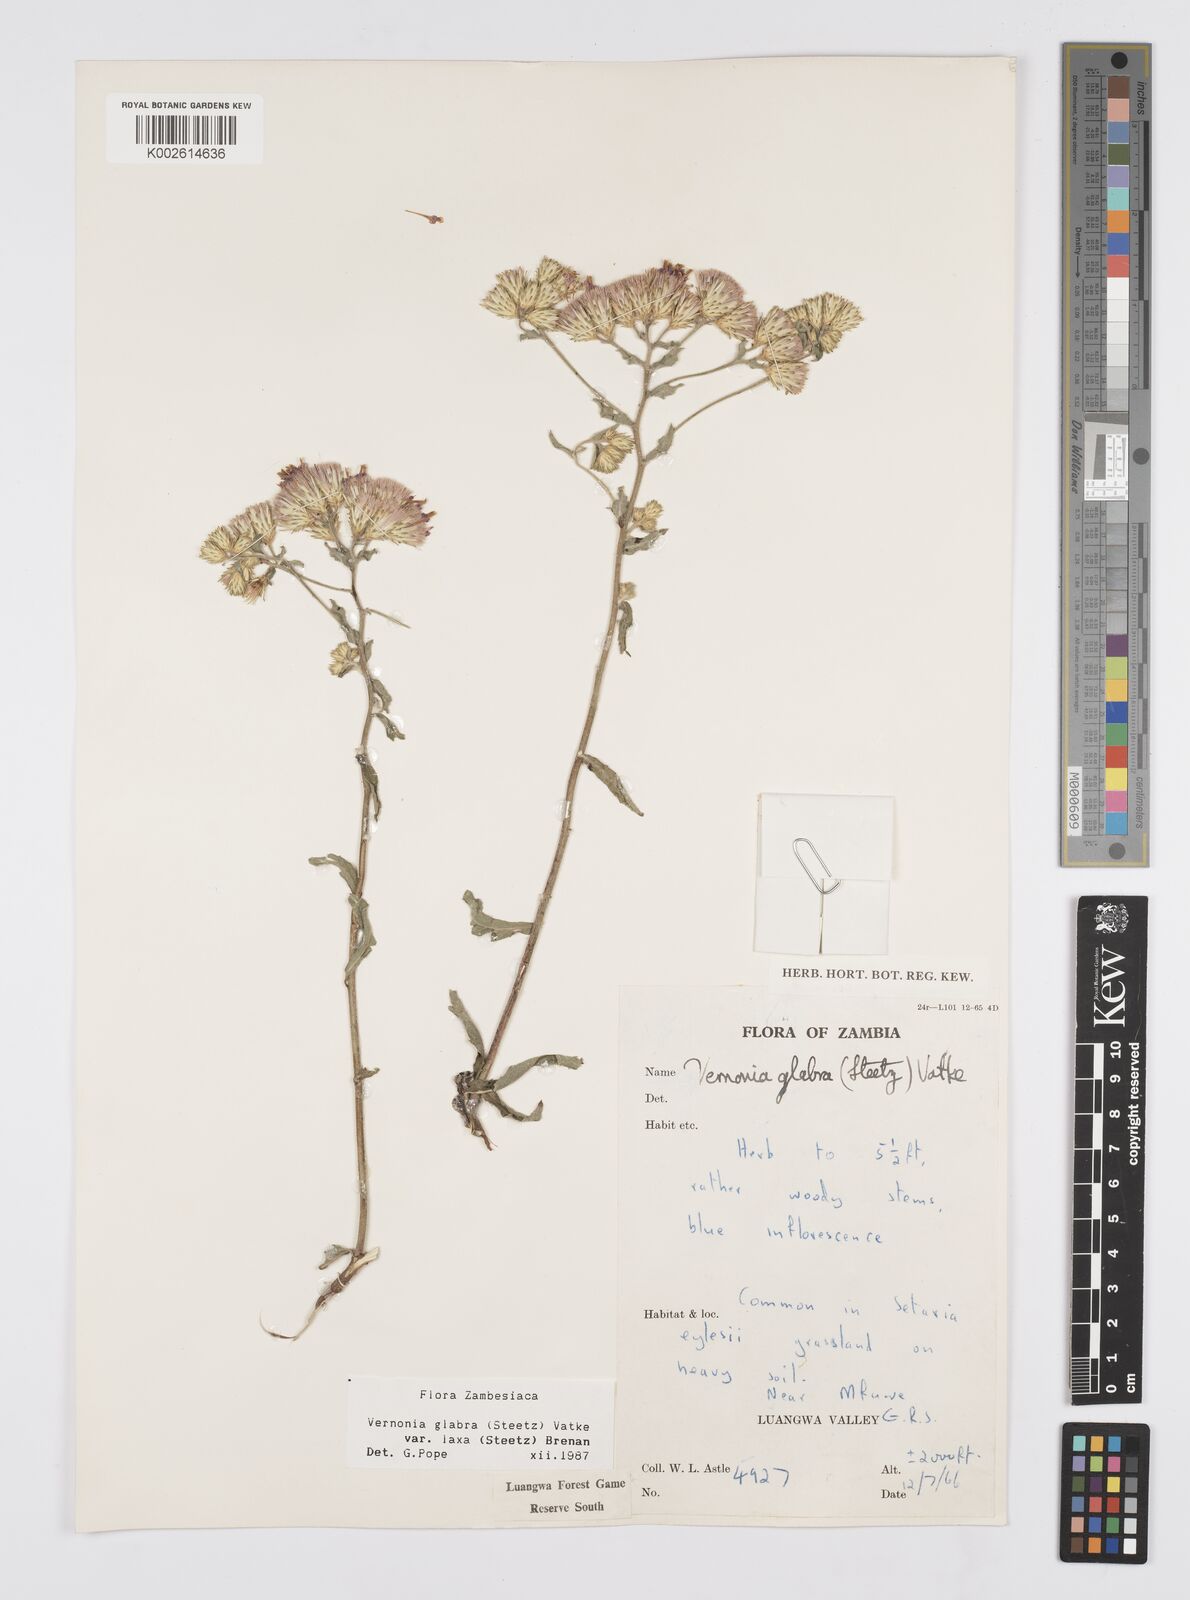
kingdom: Plantae
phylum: Tracheophyta
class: Magnoliopsida
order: Asterales
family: Asteraceae
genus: Linzia
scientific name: Linzia glabra
